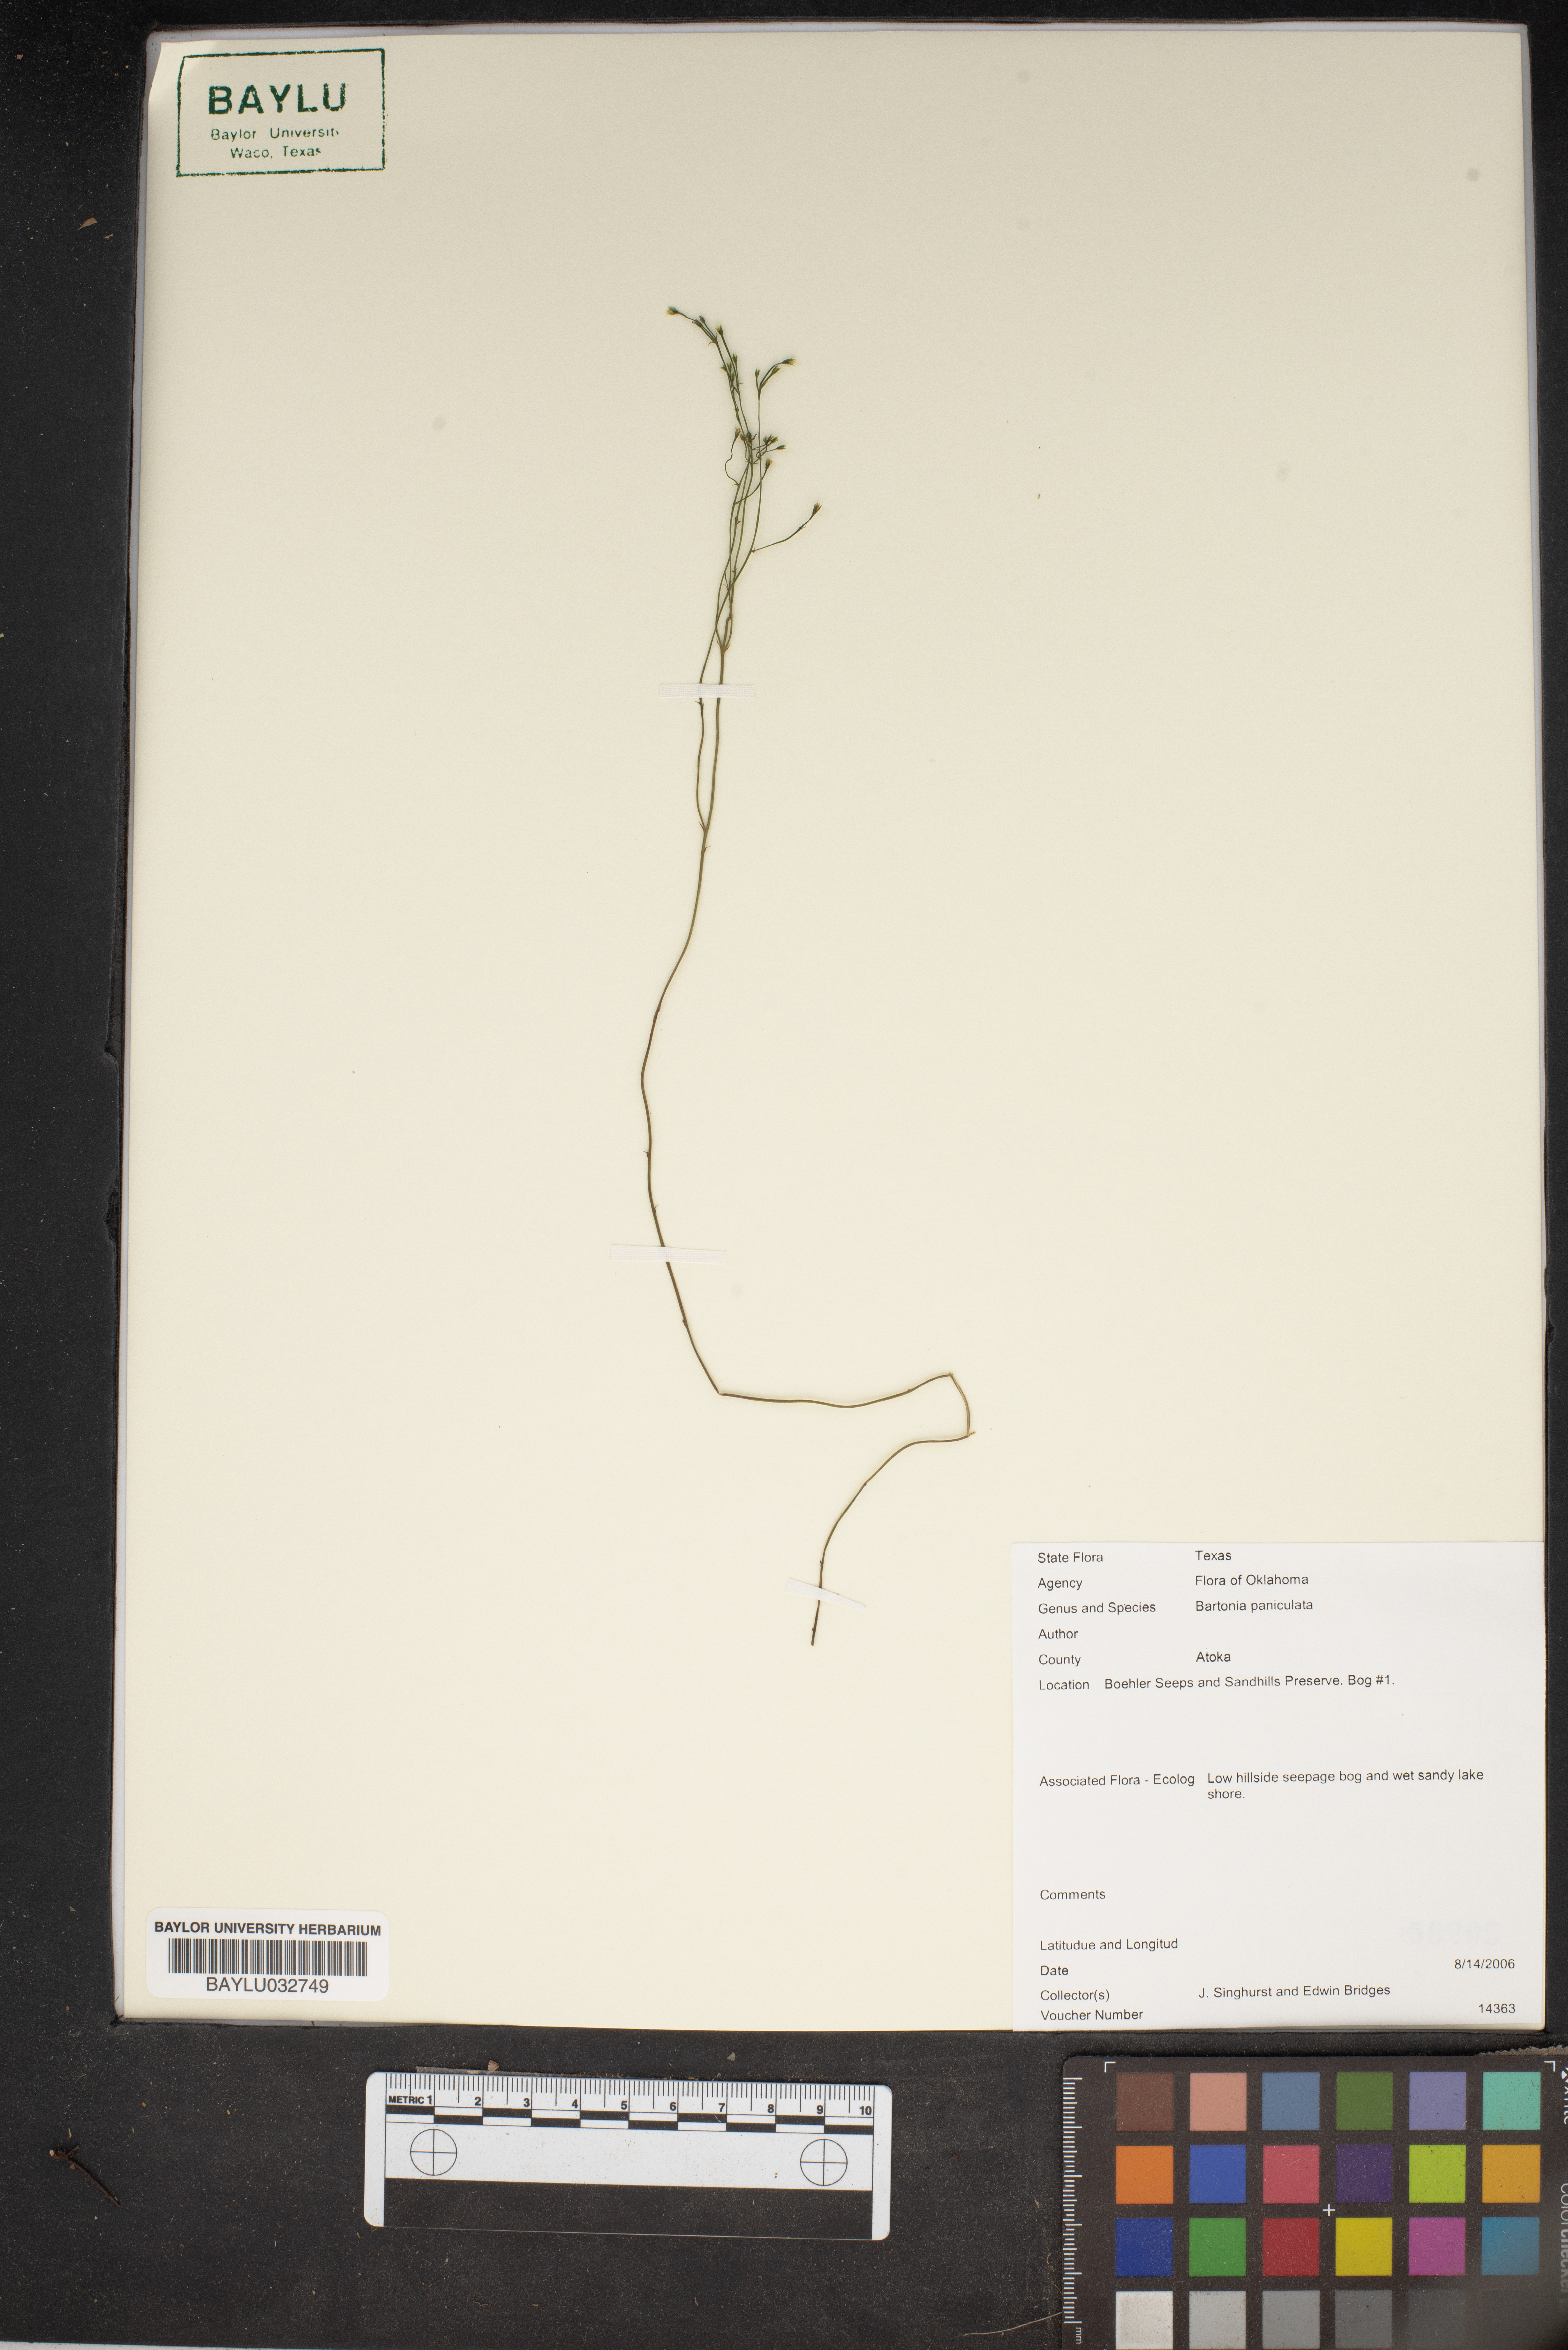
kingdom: Plantae
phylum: Tracheophyta
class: Magnoliopsida
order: Gentianales
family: Gentianaceae
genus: Bartonia
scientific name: Bartonia paniculata
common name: Branched bartonia
